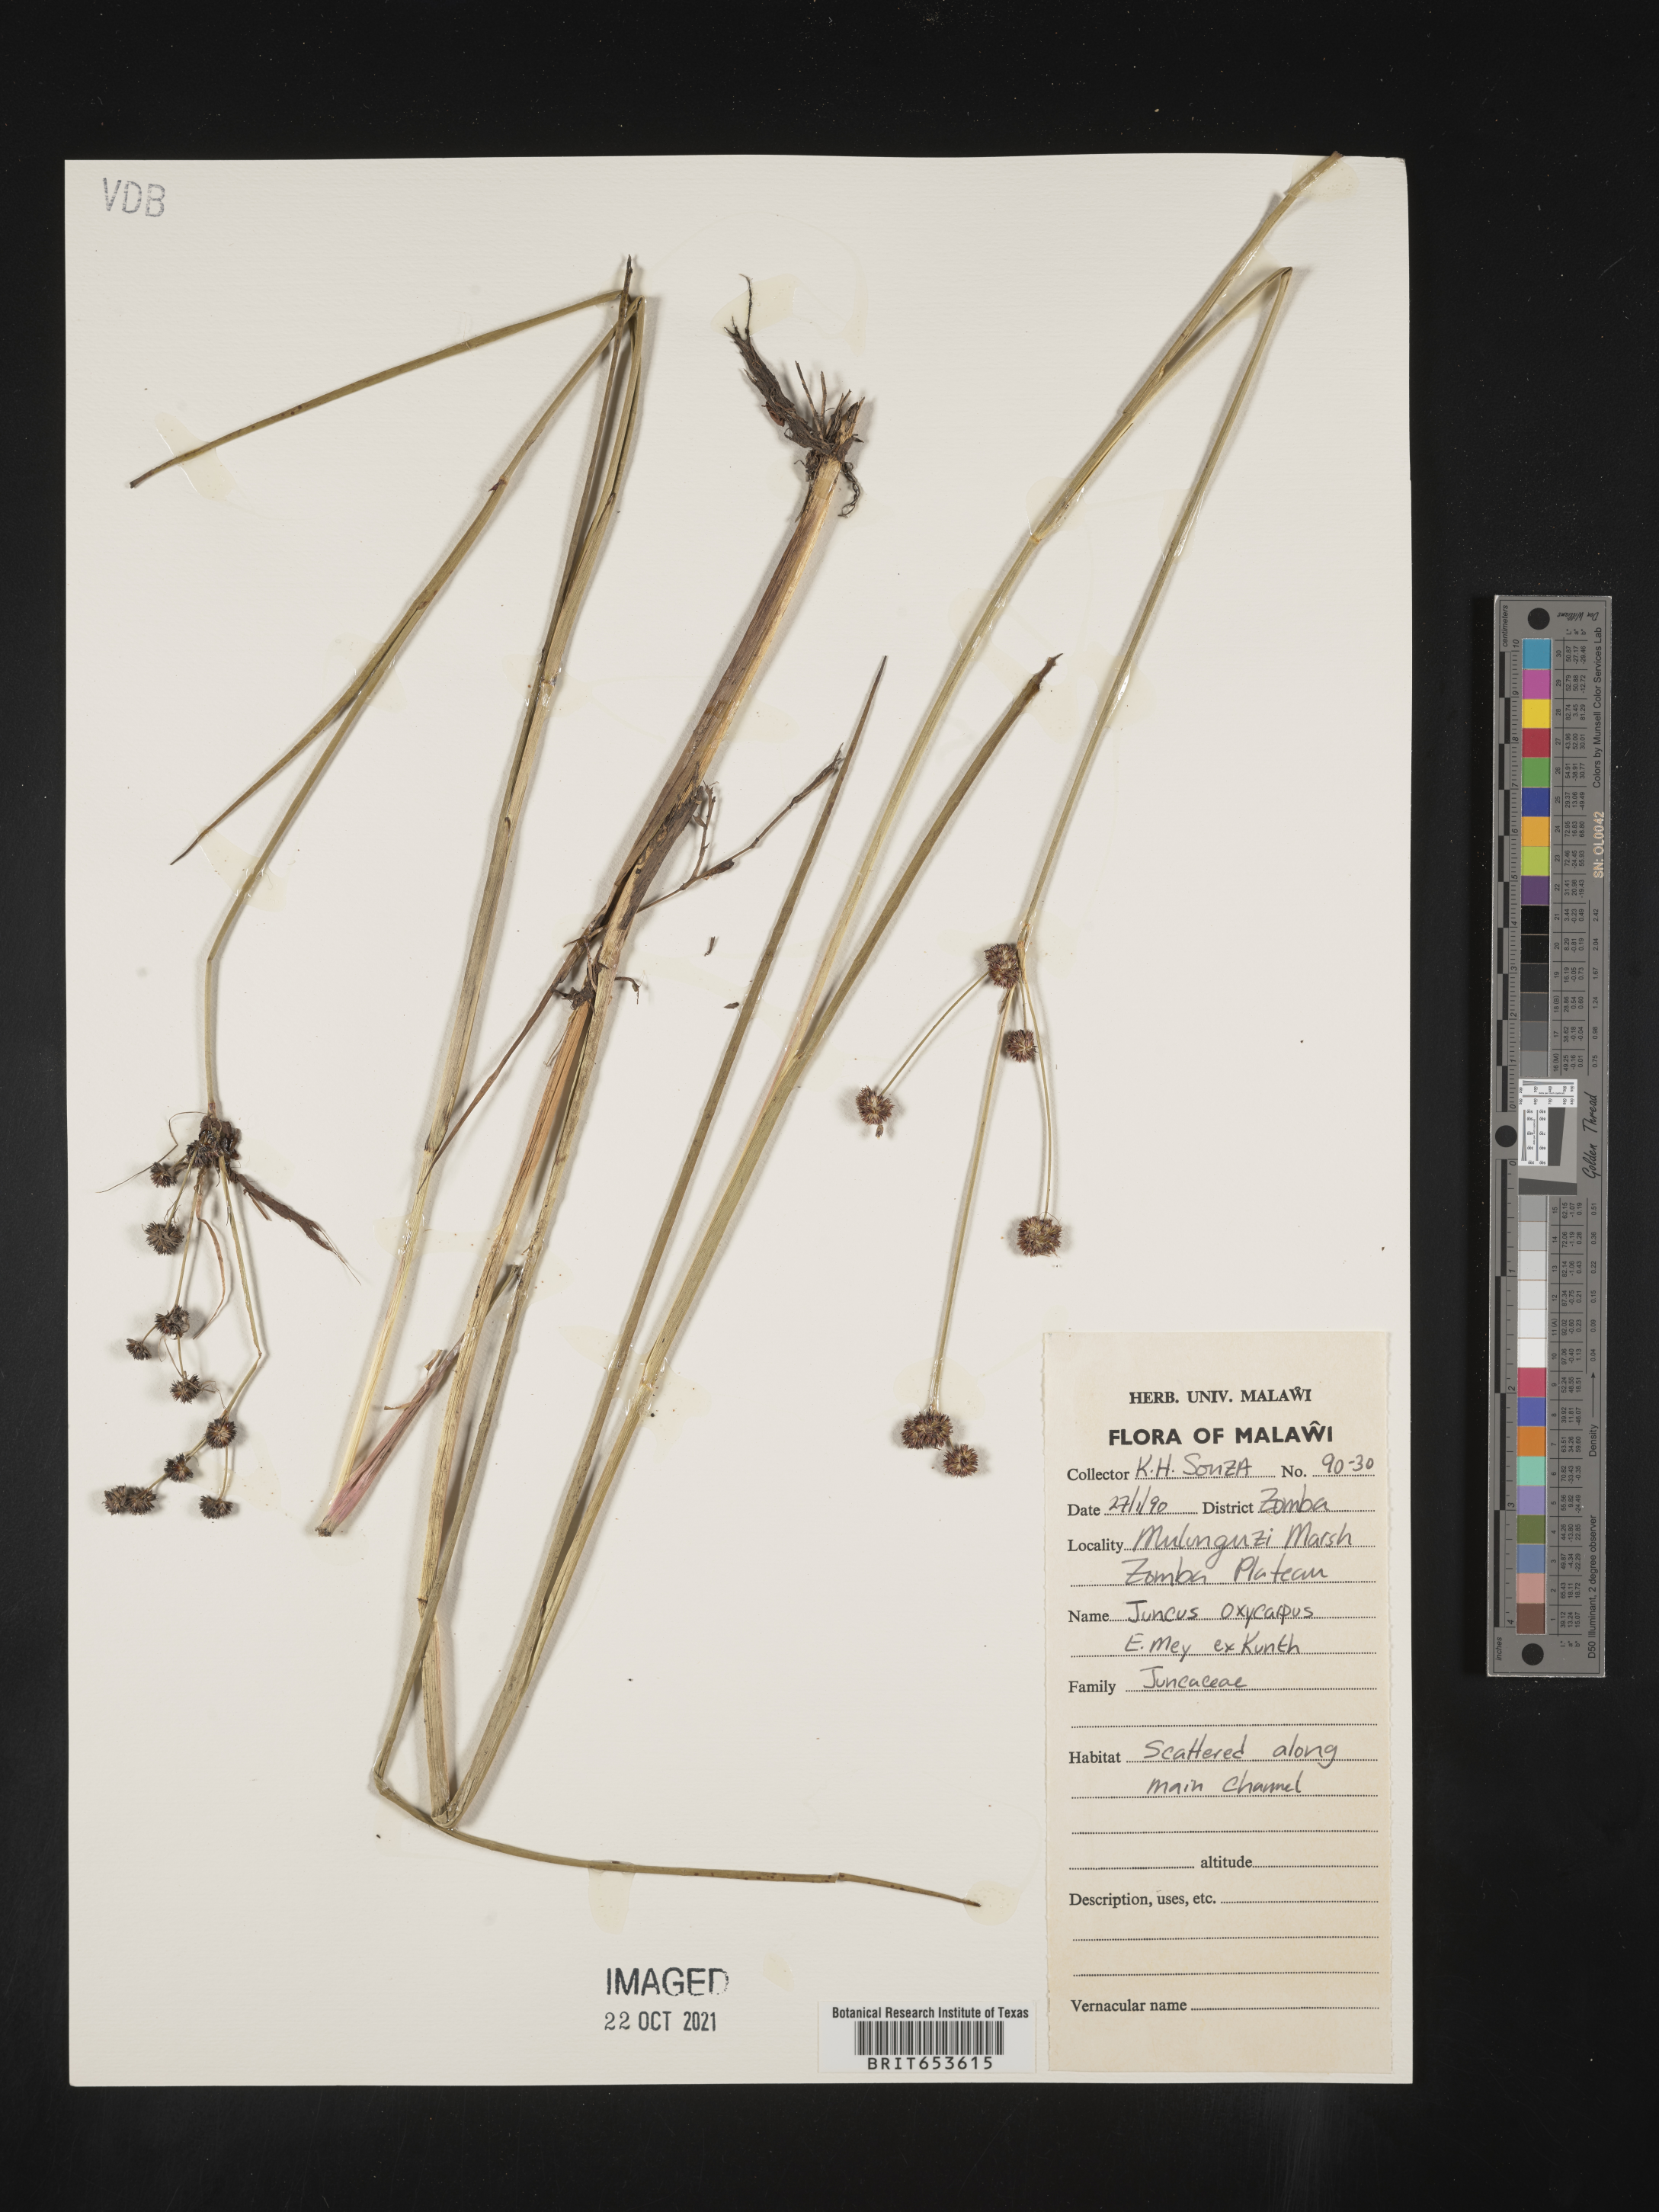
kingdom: Plantae
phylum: Tracheophyta
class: Liliopsida
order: Poales
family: Juncaceae
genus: Juncus
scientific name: Juncus
